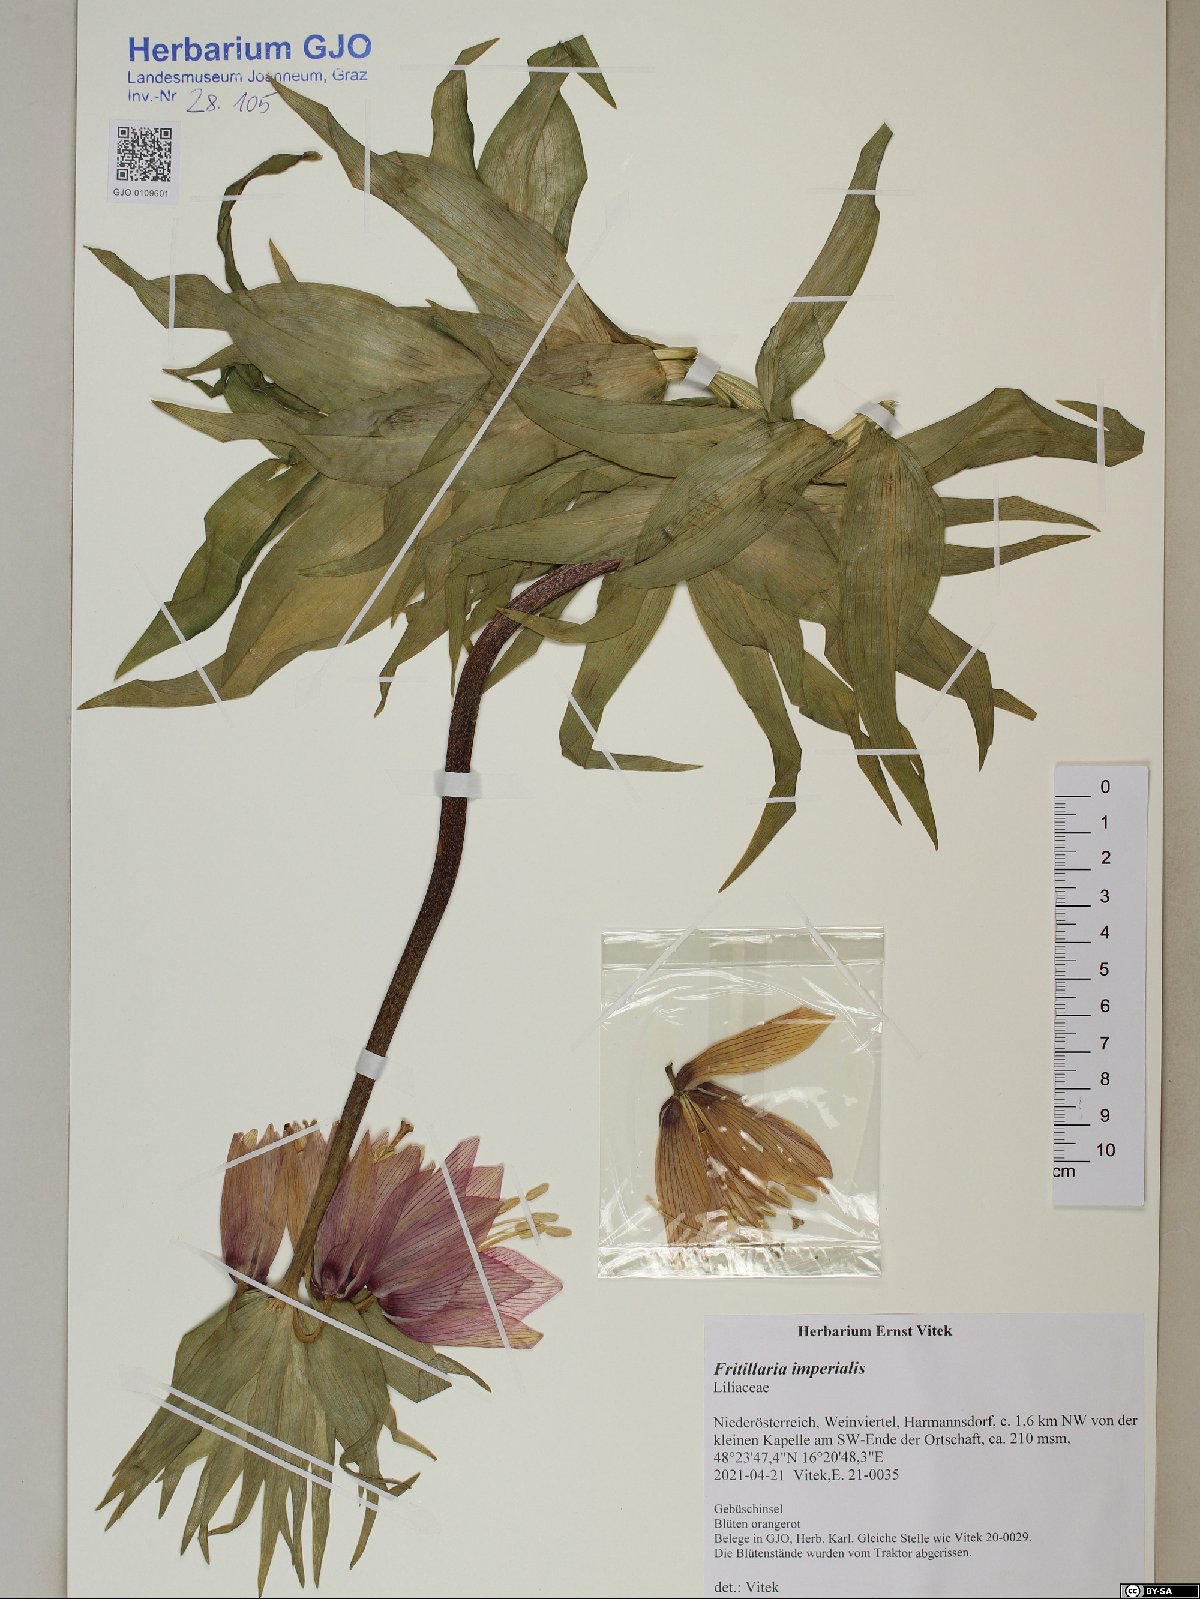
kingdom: Plantae
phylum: Tracheophyta
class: Liliopsida
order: Liliales
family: Liliaceae
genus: Fritillaria
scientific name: Fritillaria imperialis
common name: Imperial fritillary
